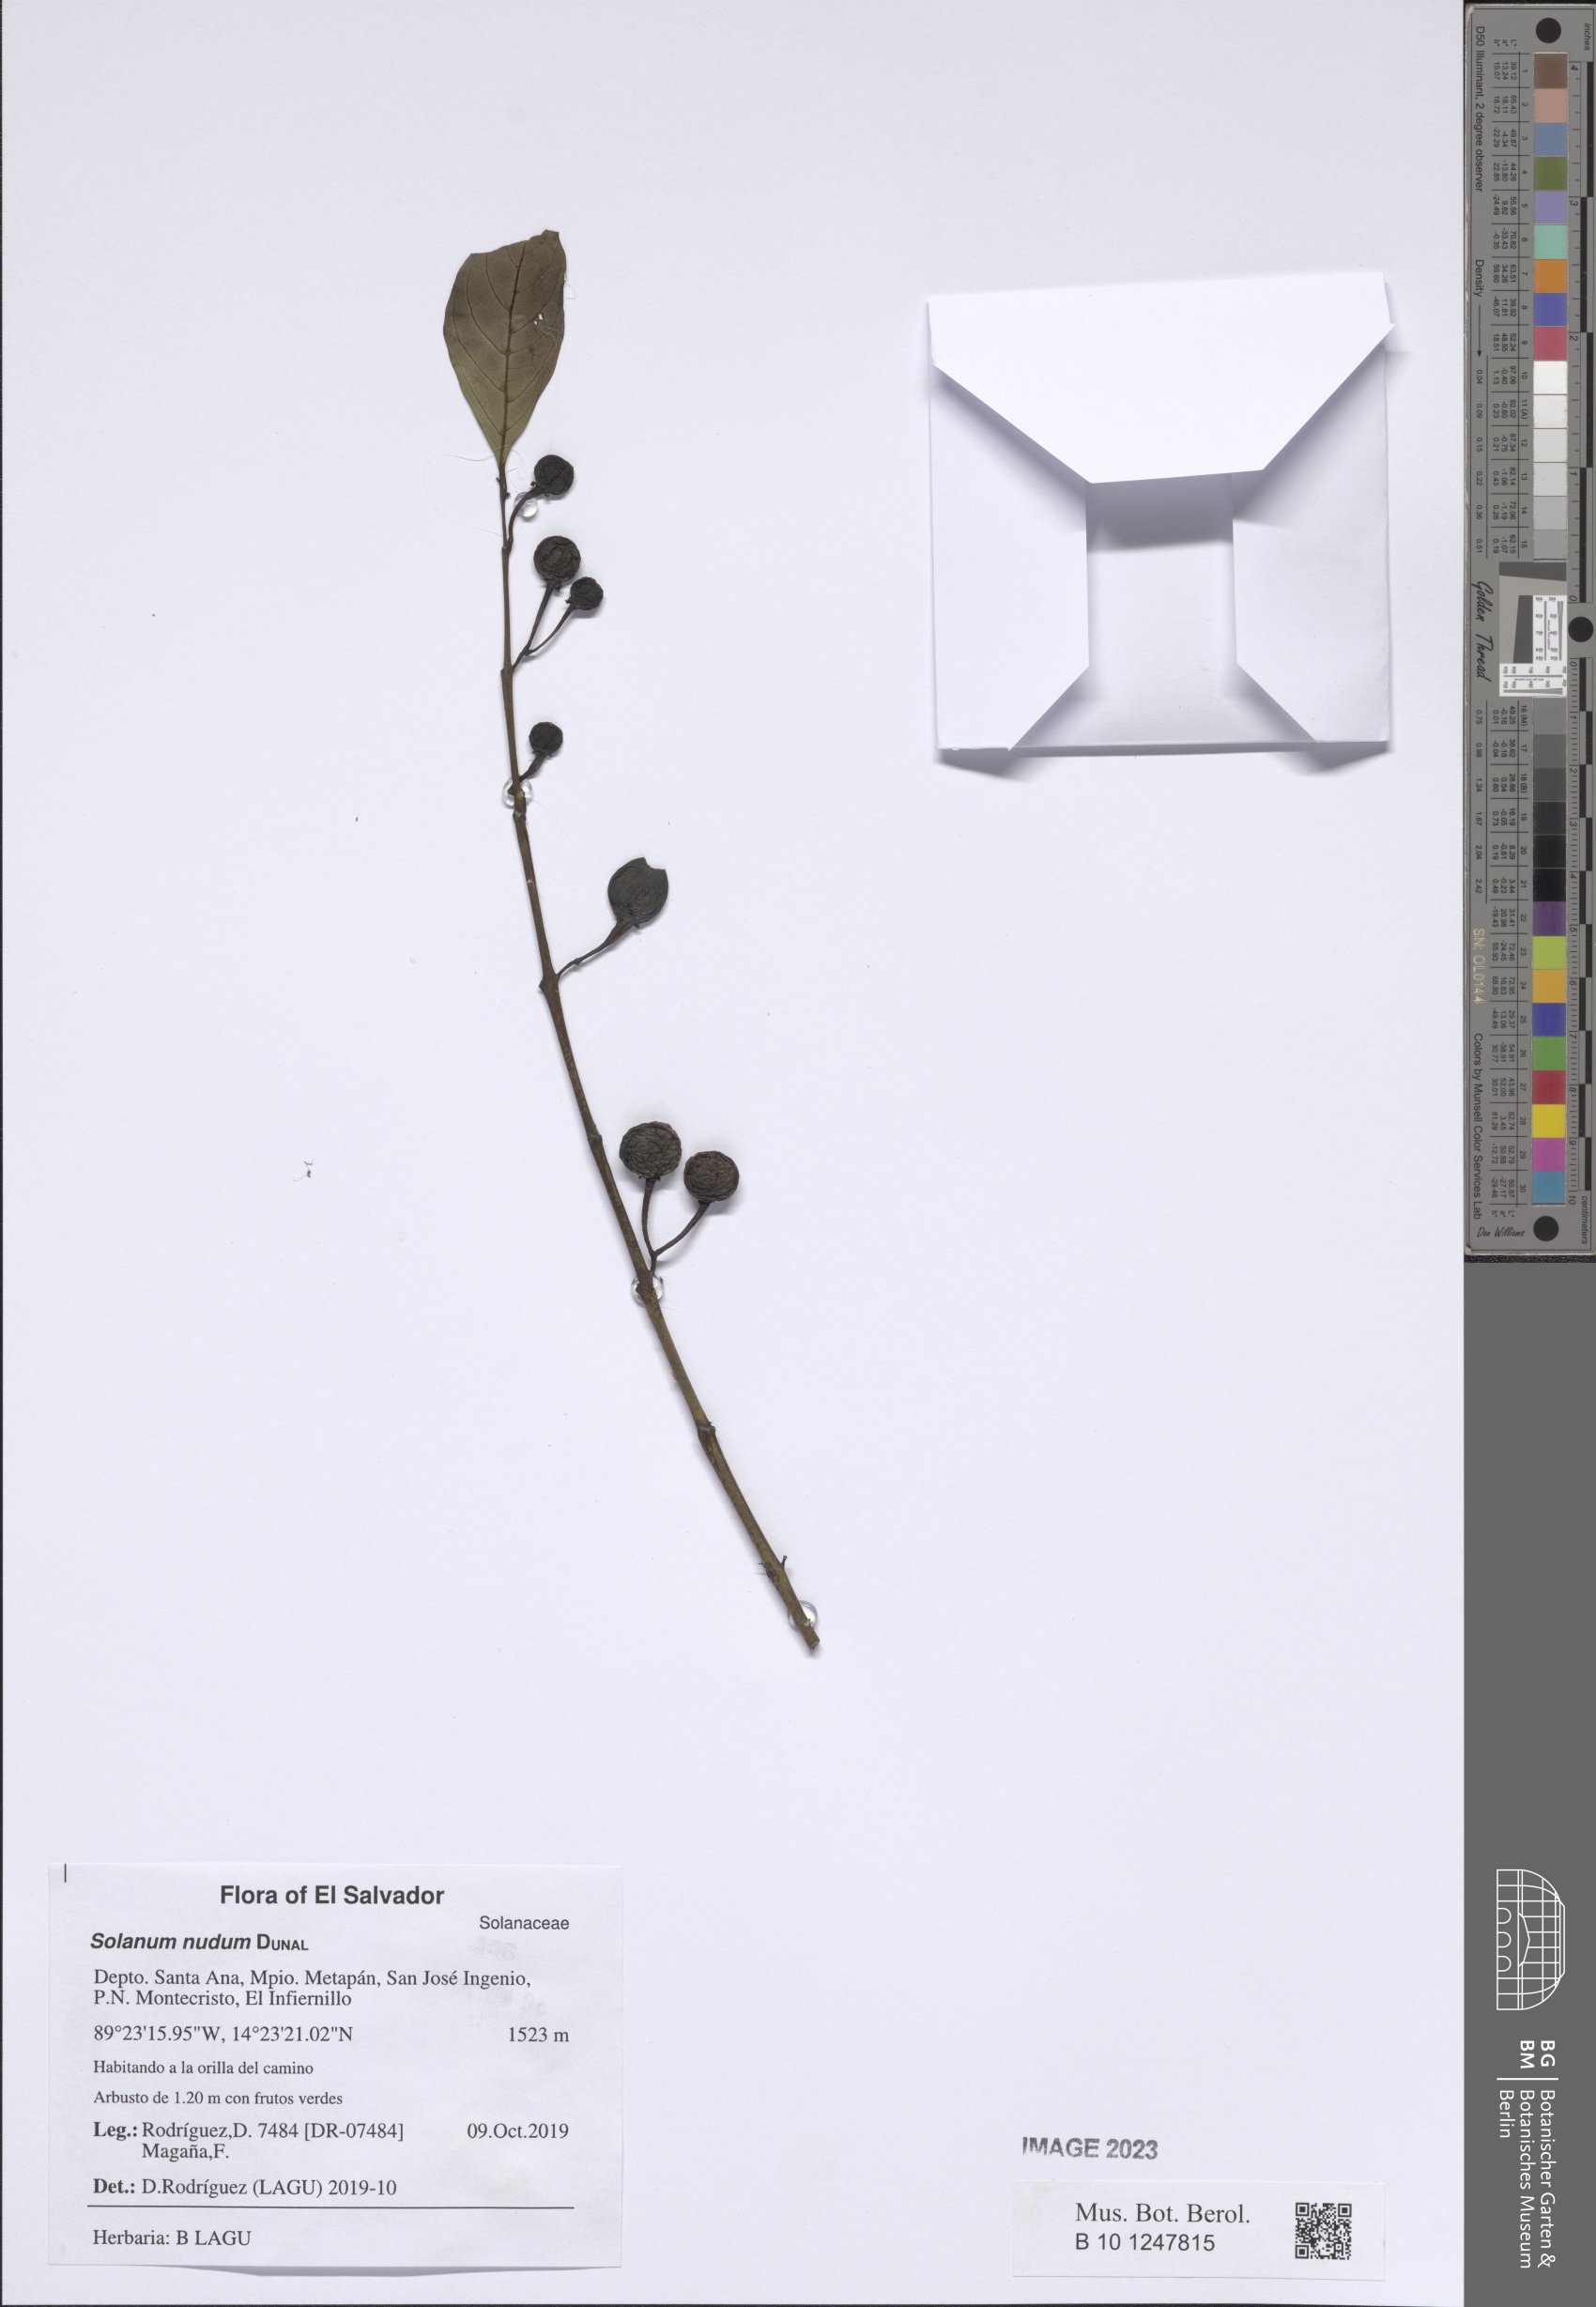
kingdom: Plantae
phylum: Tracheophyta
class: Magnoliopsida
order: Solanales
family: Solanaceae
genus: Solanum
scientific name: Solanum nudum
